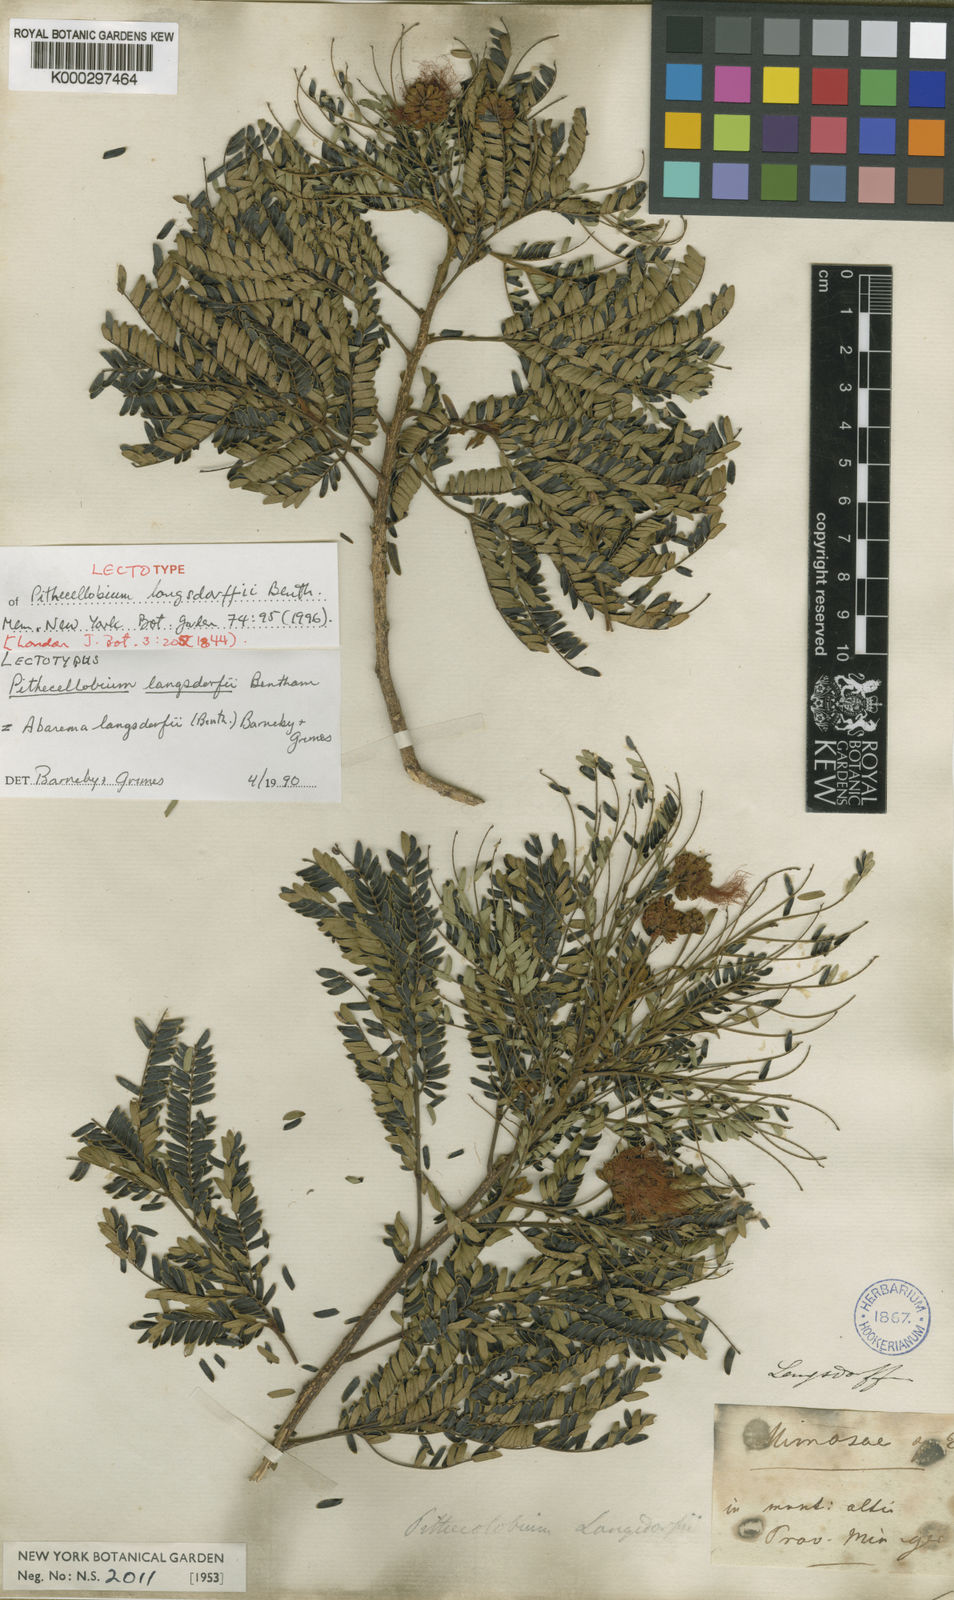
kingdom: Plantae
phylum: Tracheophyta
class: Magnoliopsida
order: Fabales
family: Fabaceae
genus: Jupunba
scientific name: Jupunba langsdorffii
